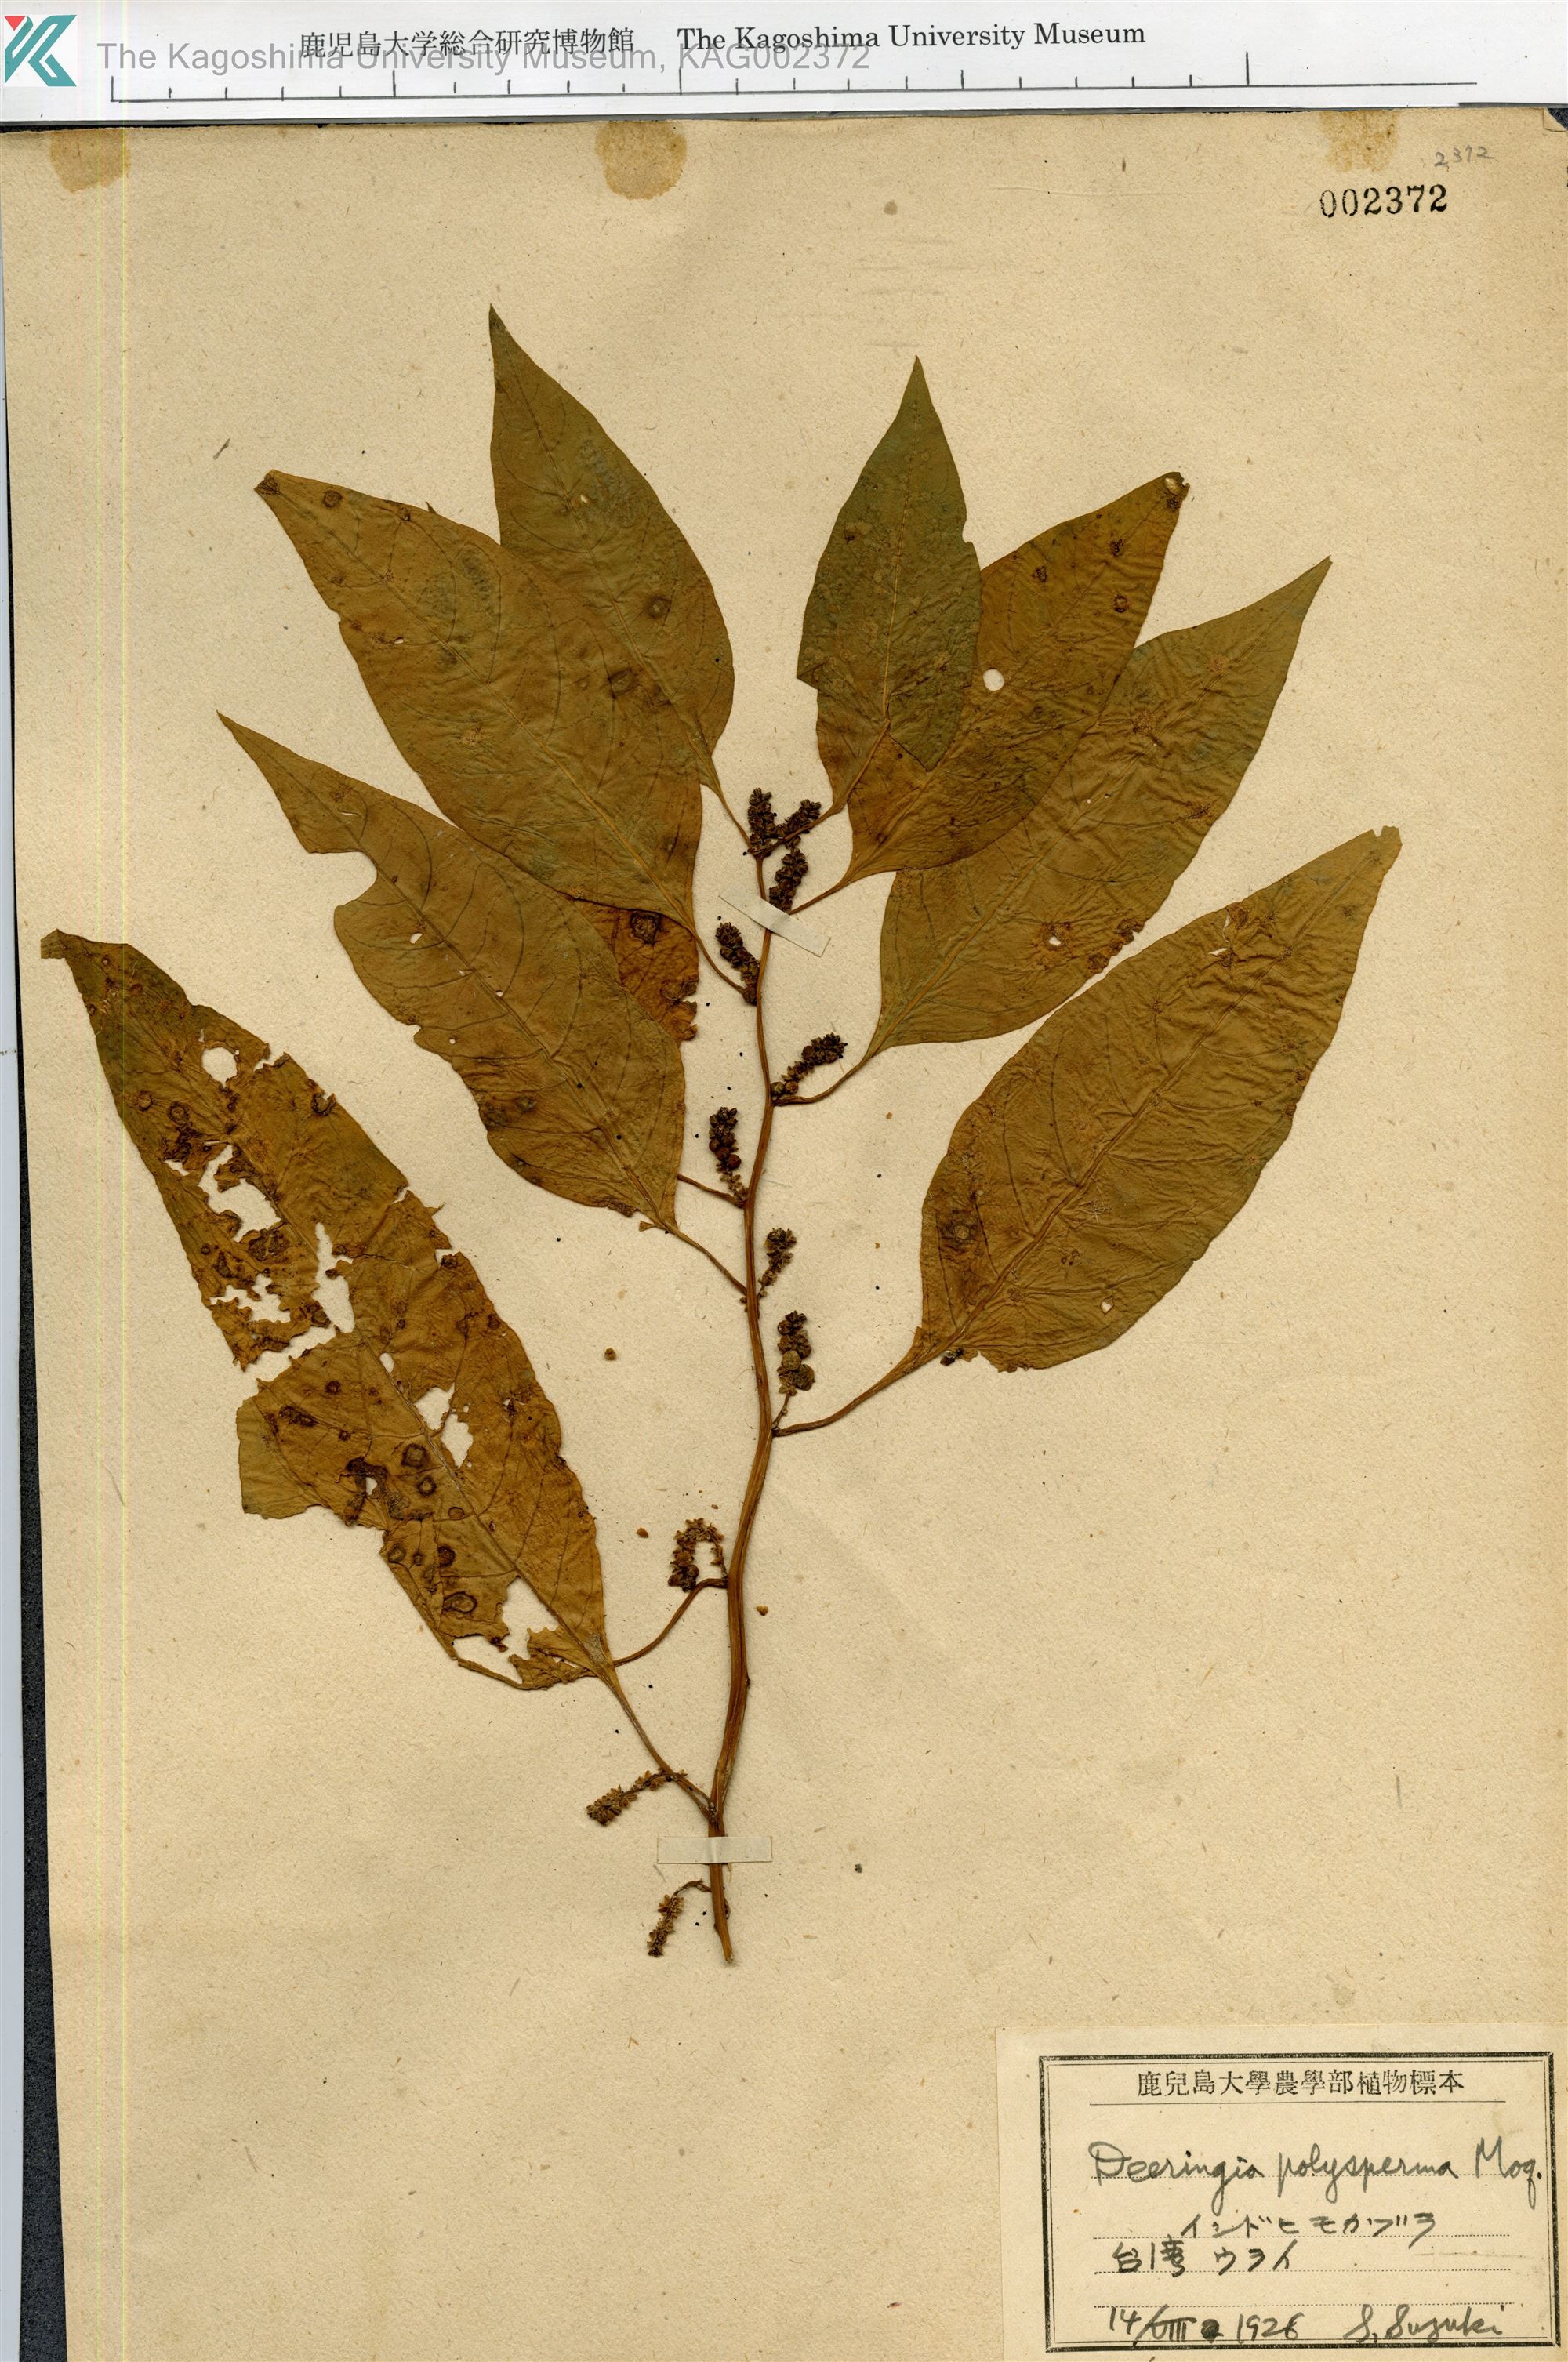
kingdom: Plantae
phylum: Tracheophyta
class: Magnoliopsida
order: Caryophyllales
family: Amaranthaceae
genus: Deeringia
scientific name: Deeringia polysperma
